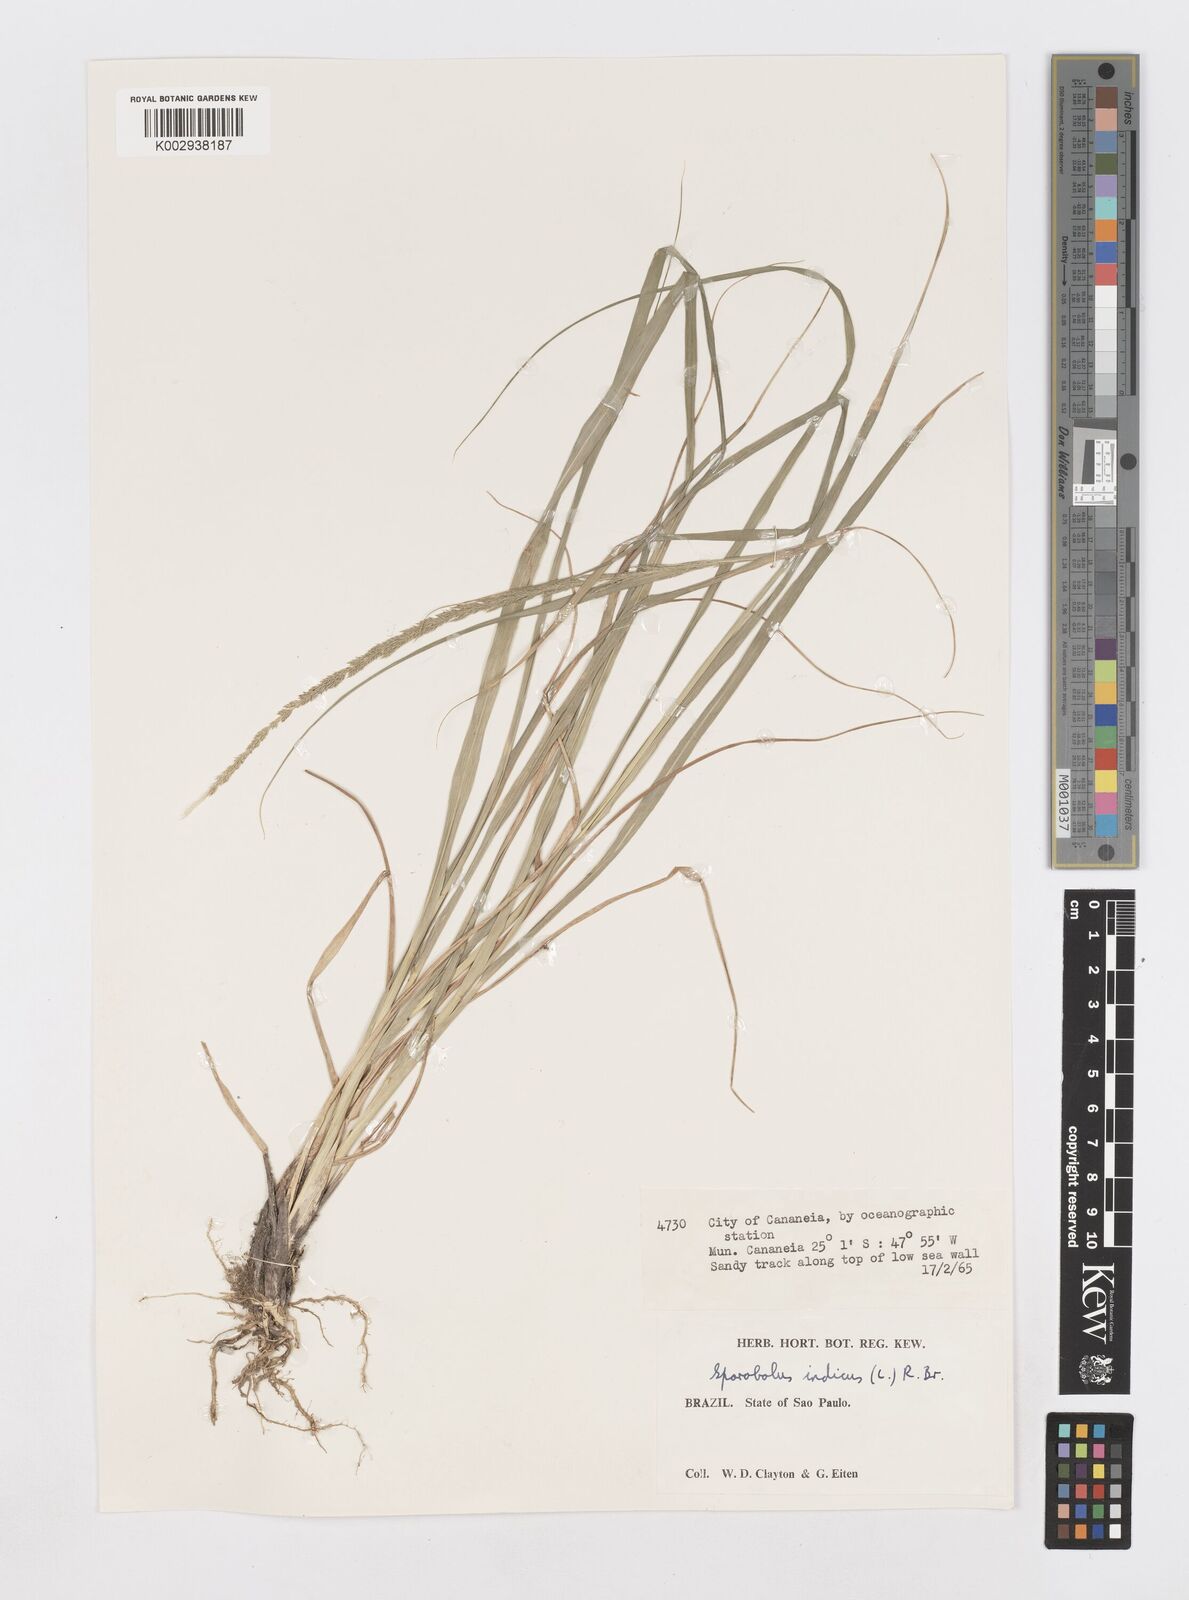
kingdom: Plantae
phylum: Tracheophyta
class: Liliopsida
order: Poales
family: Poaceae
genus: Sporobolus
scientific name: Sporobolus indicus
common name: Smut grass
